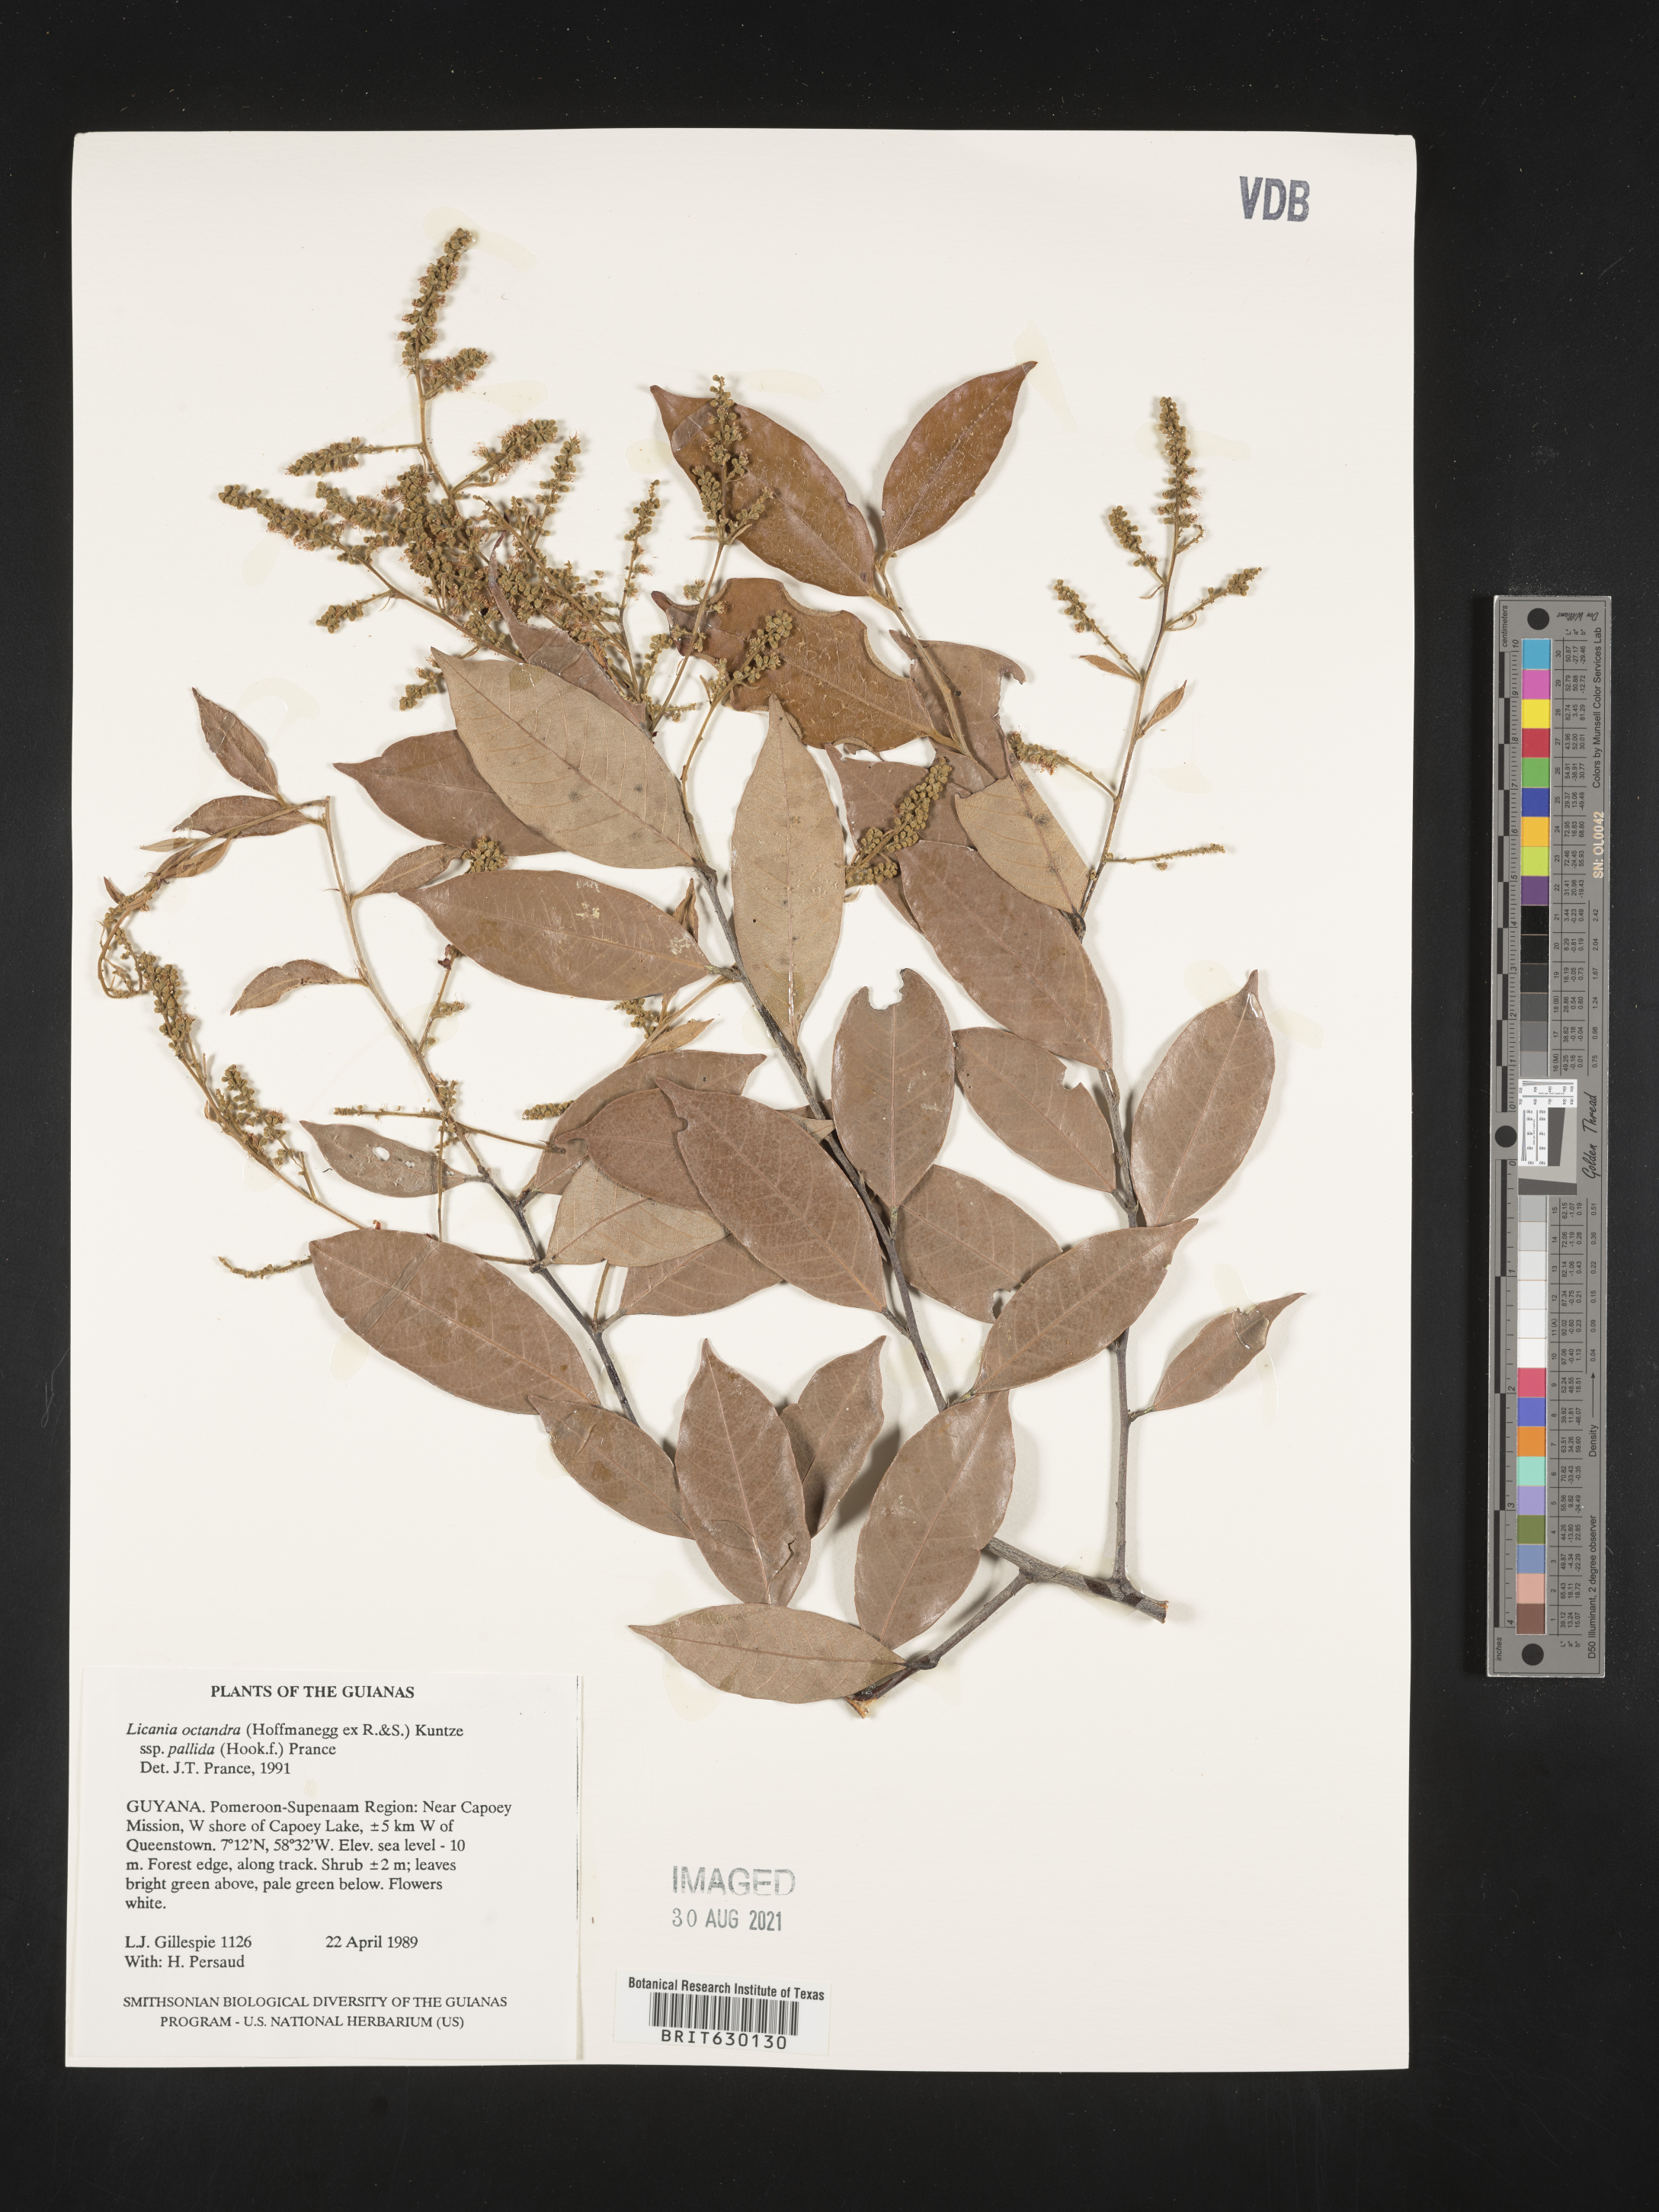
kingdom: Plantae
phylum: Tracheophyta
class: Magnoliopsida
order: Malpighiales
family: Chrysobalanaceae
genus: Leptobalanus
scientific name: Leptobalanus octandrus
